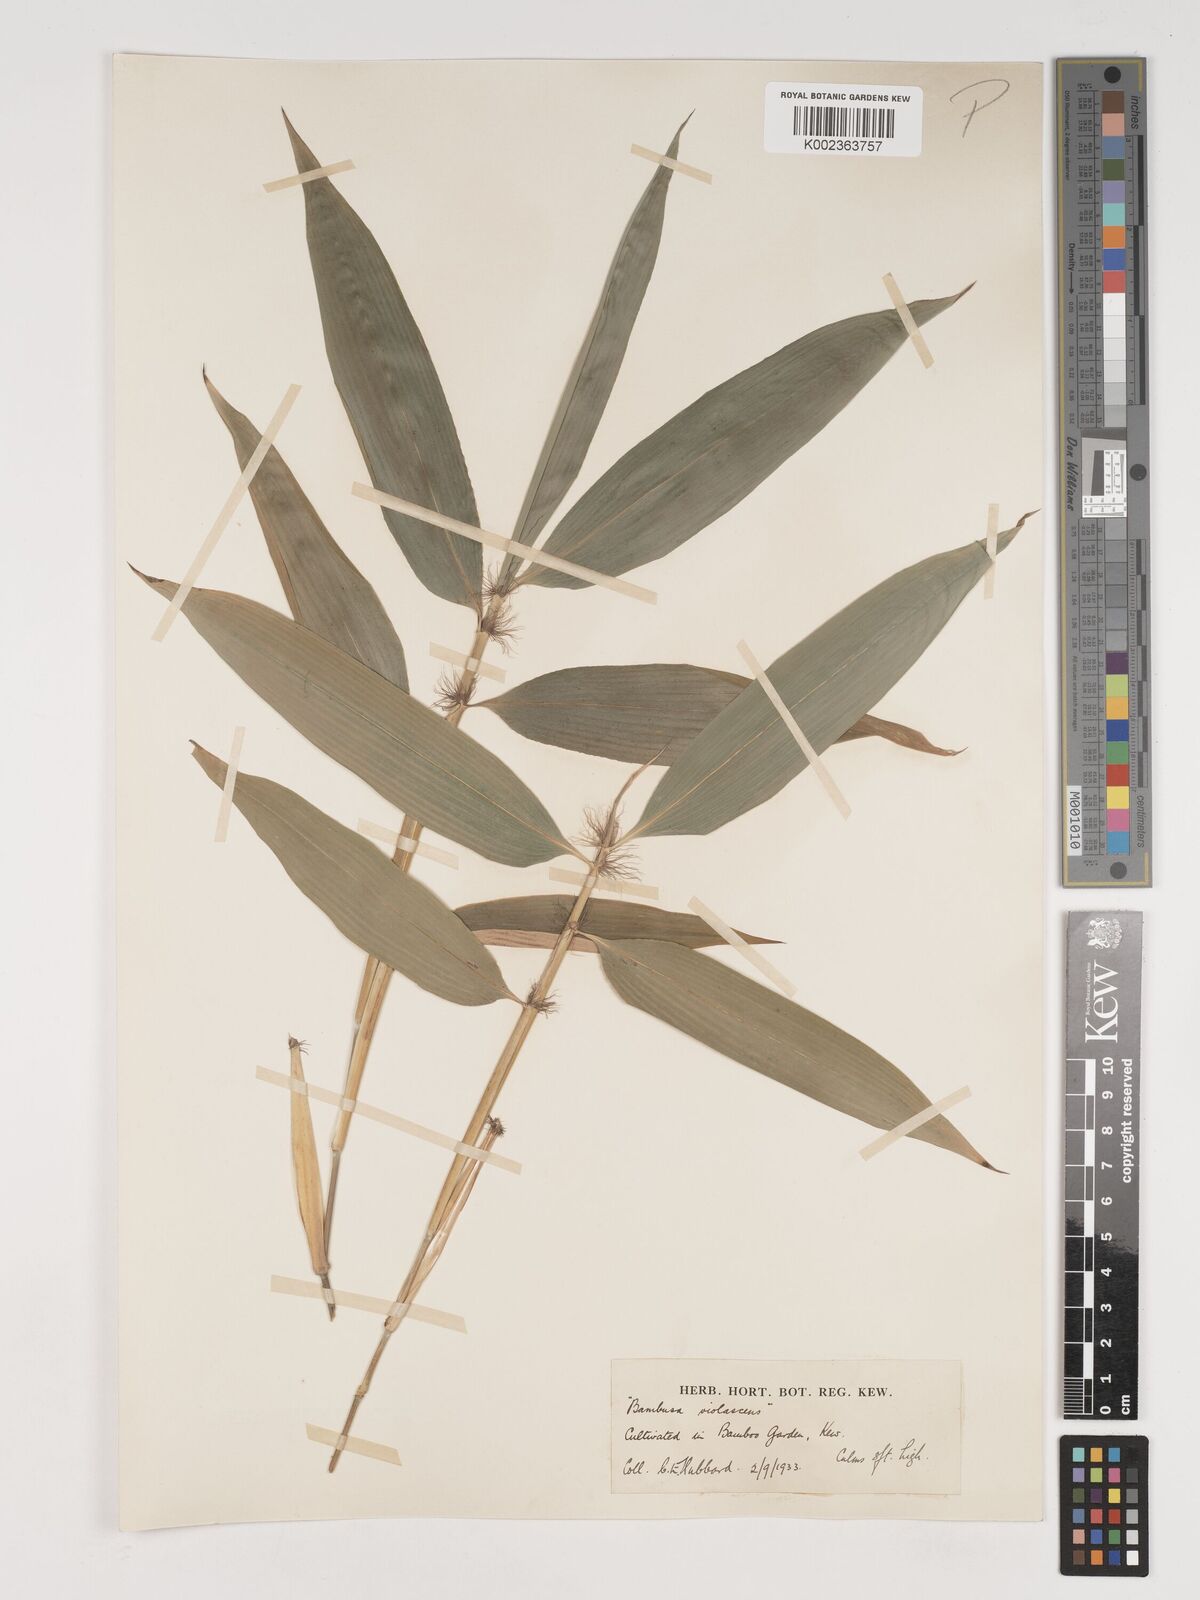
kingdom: Plantae
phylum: Tracheophyta
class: Liliopsida
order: Poales
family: Poaceae
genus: Phyllostachys
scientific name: Phyllostachys reticulata
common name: Bamboo
